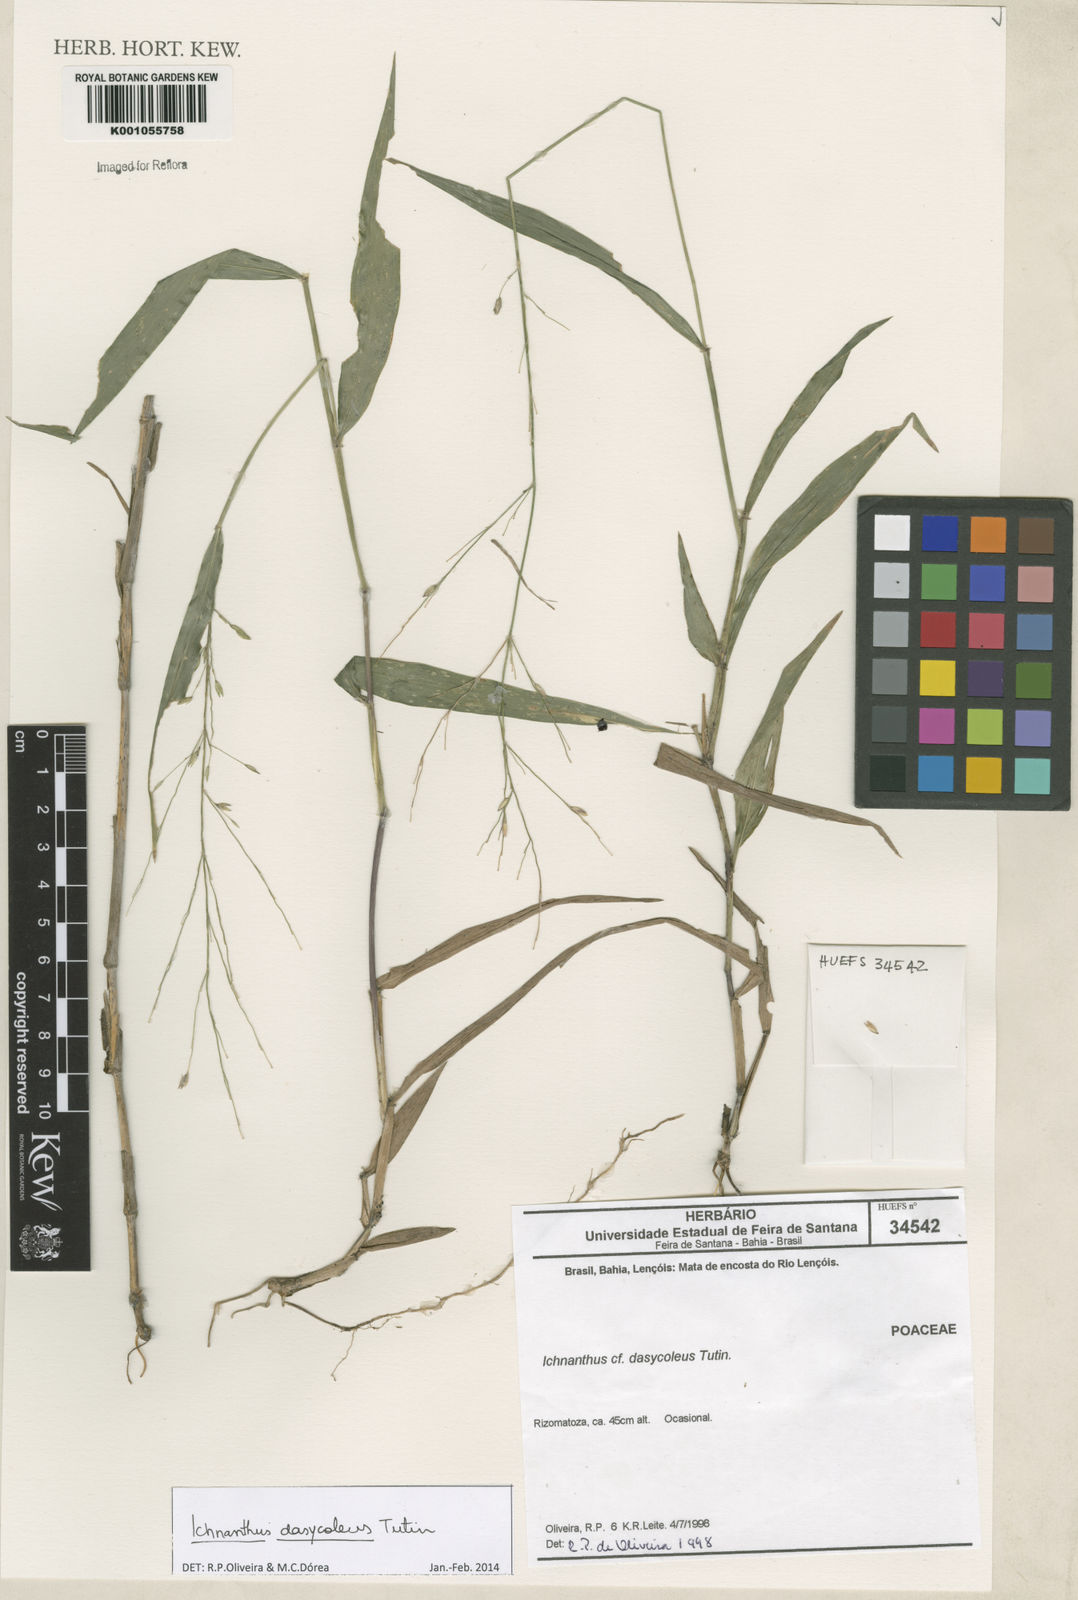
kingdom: Plantae
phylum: Tracheophyta
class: Liliopsida
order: Poales
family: Poaceae
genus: Ichnanthus
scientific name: Ichnanthus dasycoleus
